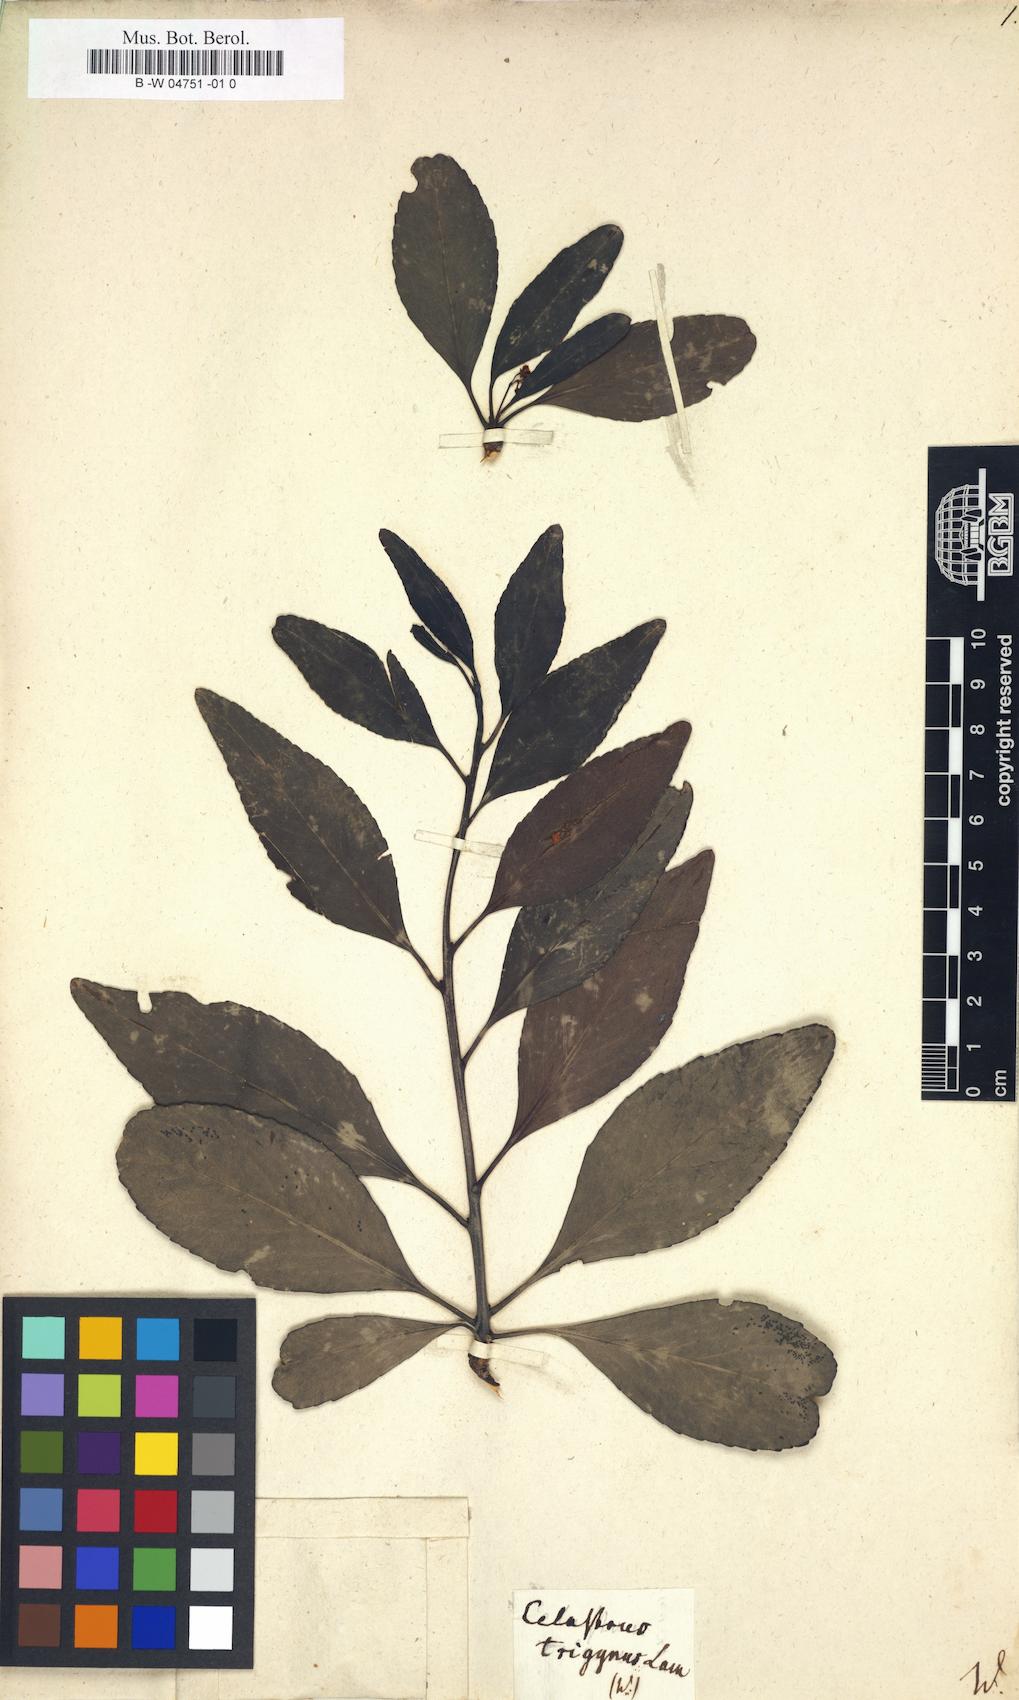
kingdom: Plantae
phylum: Tracheophyta
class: Magnoliopsida
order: Celastrales
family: Celastraceae
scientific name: Celastraceae
